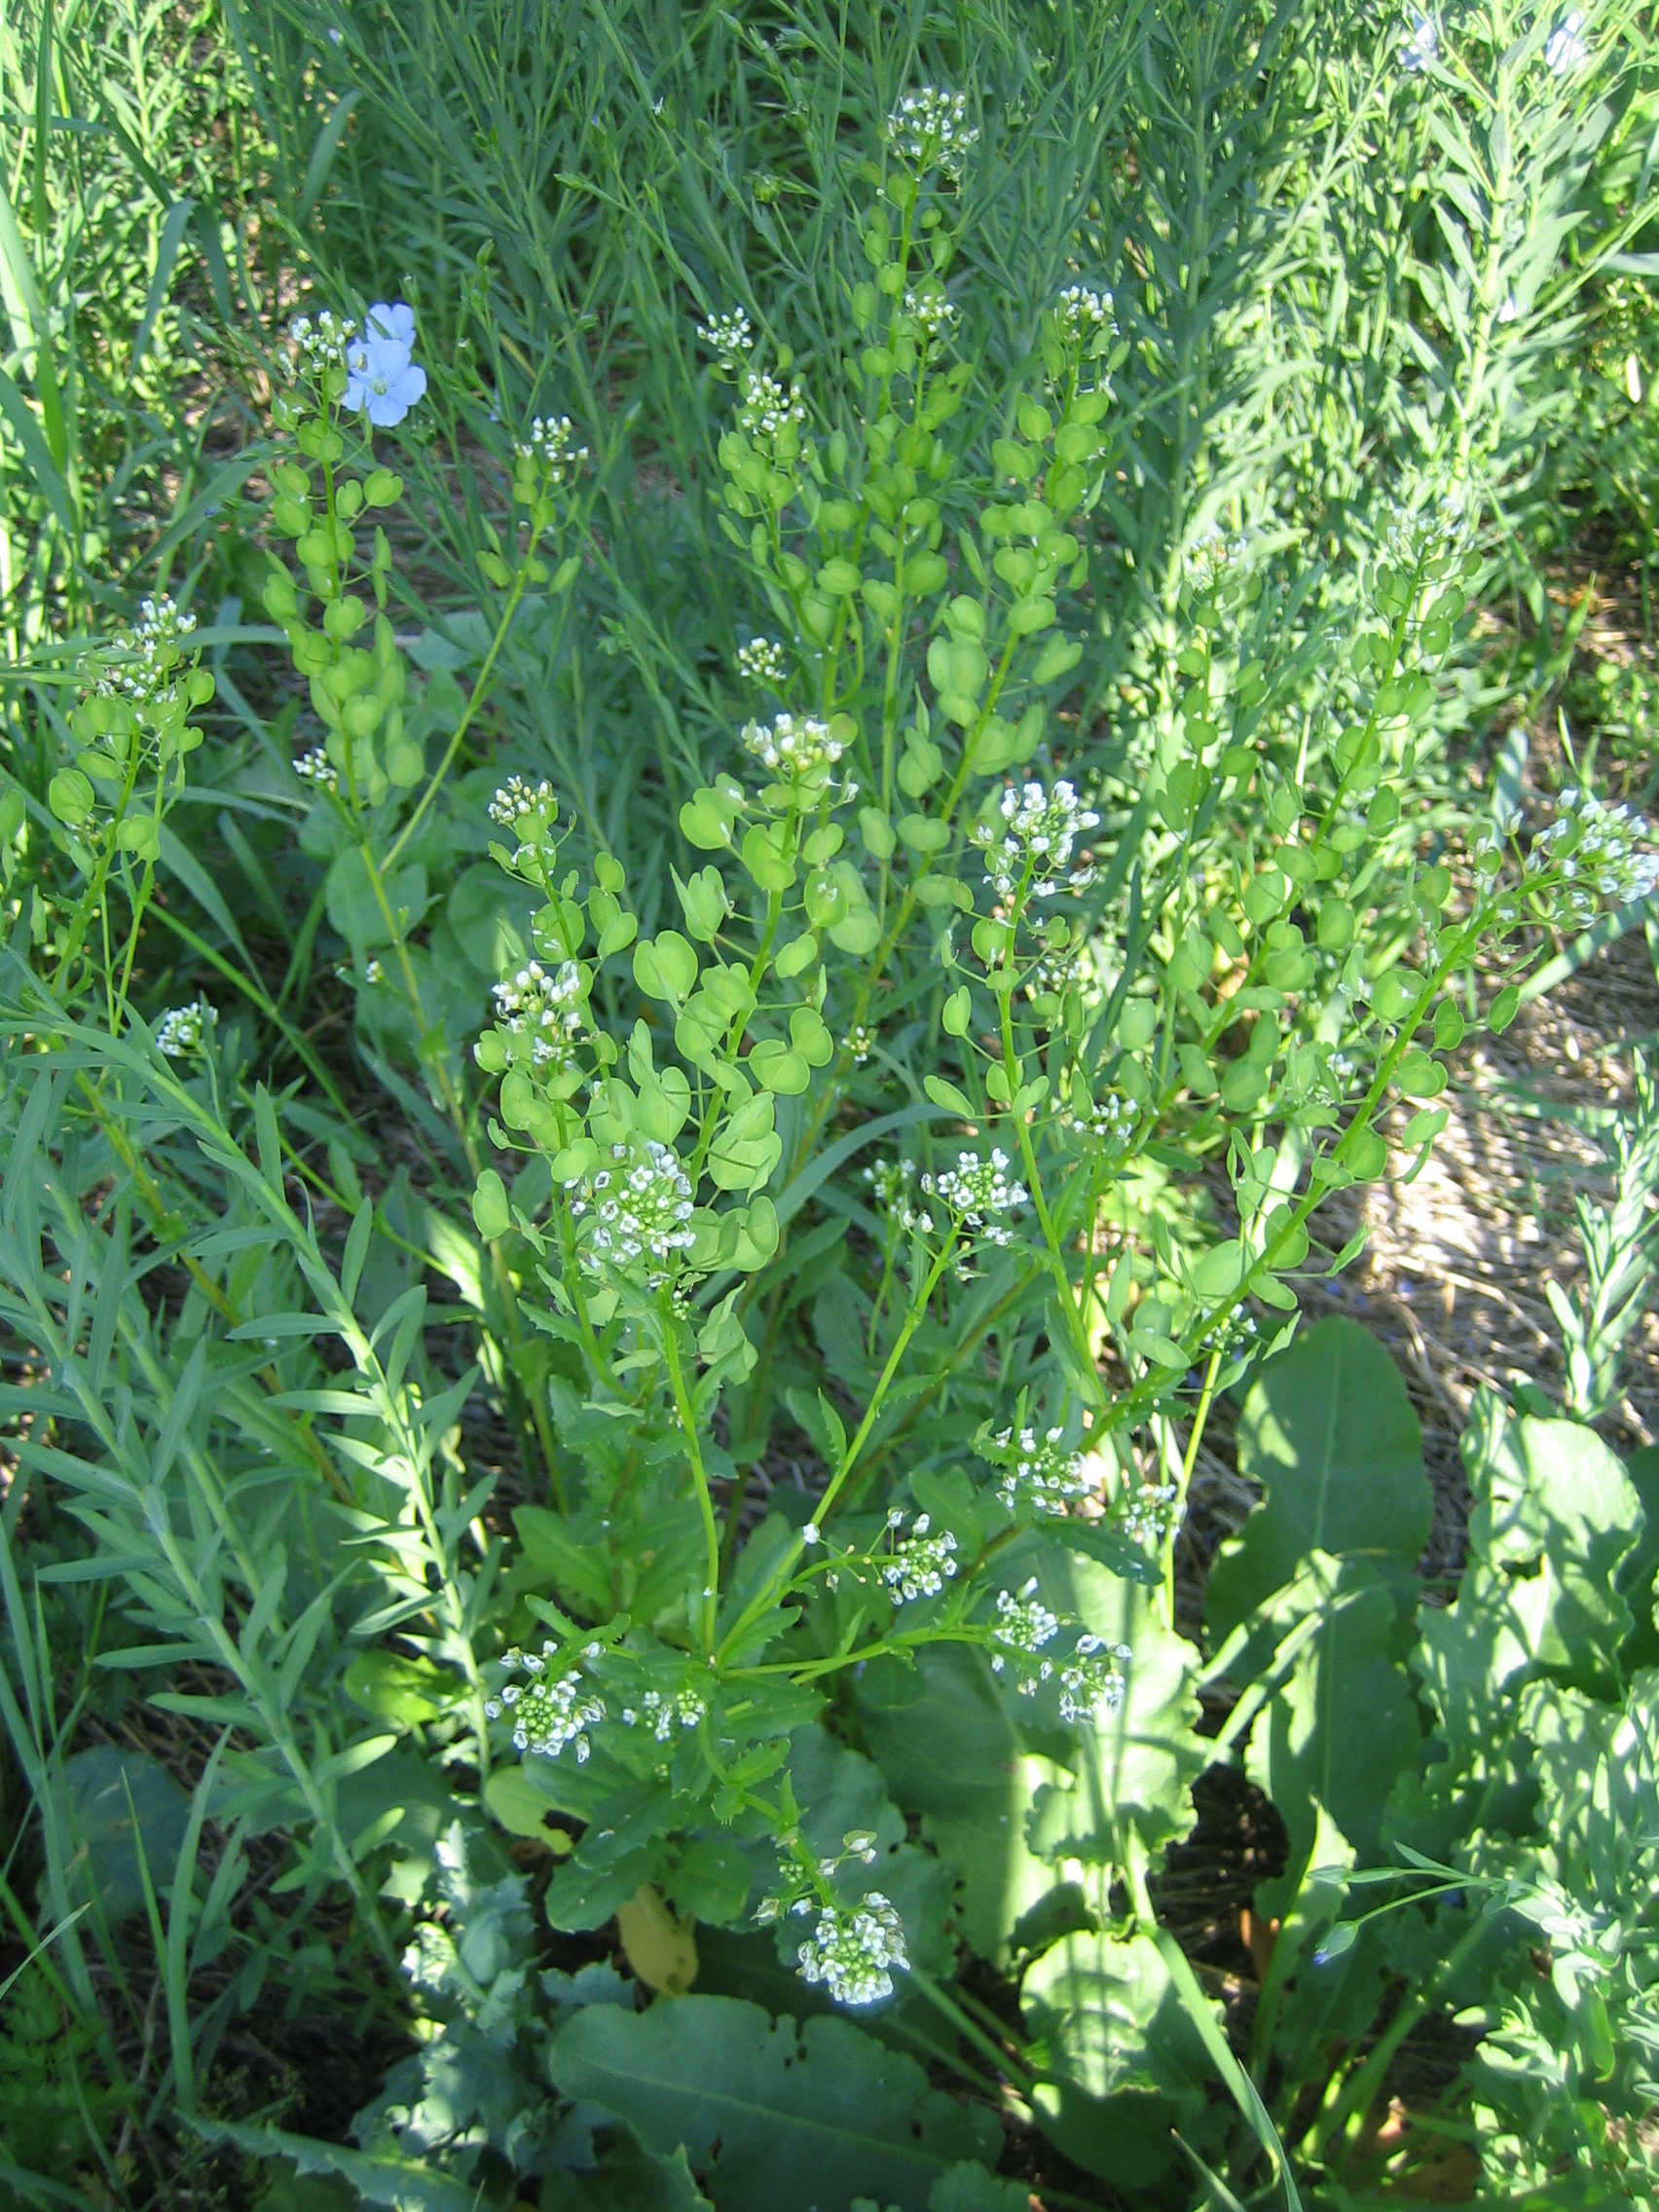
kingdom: Plantae
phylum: Tracheophyta
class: Magnoliopsida
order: Brassicales
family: Brassicaceae
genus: Thlaspi
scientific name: Thlaspi arvense
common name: Field pennycress
